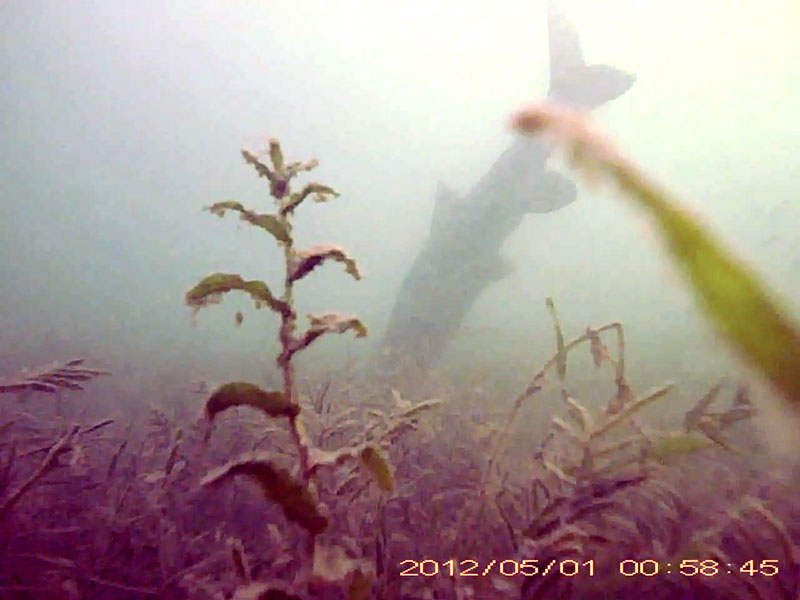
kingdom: Animalia
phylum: Chordata
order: Cypriniformes
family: Cyprinidae
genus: Hemibarbus
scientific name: Hemibarbus labeo
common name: ニゴイ
